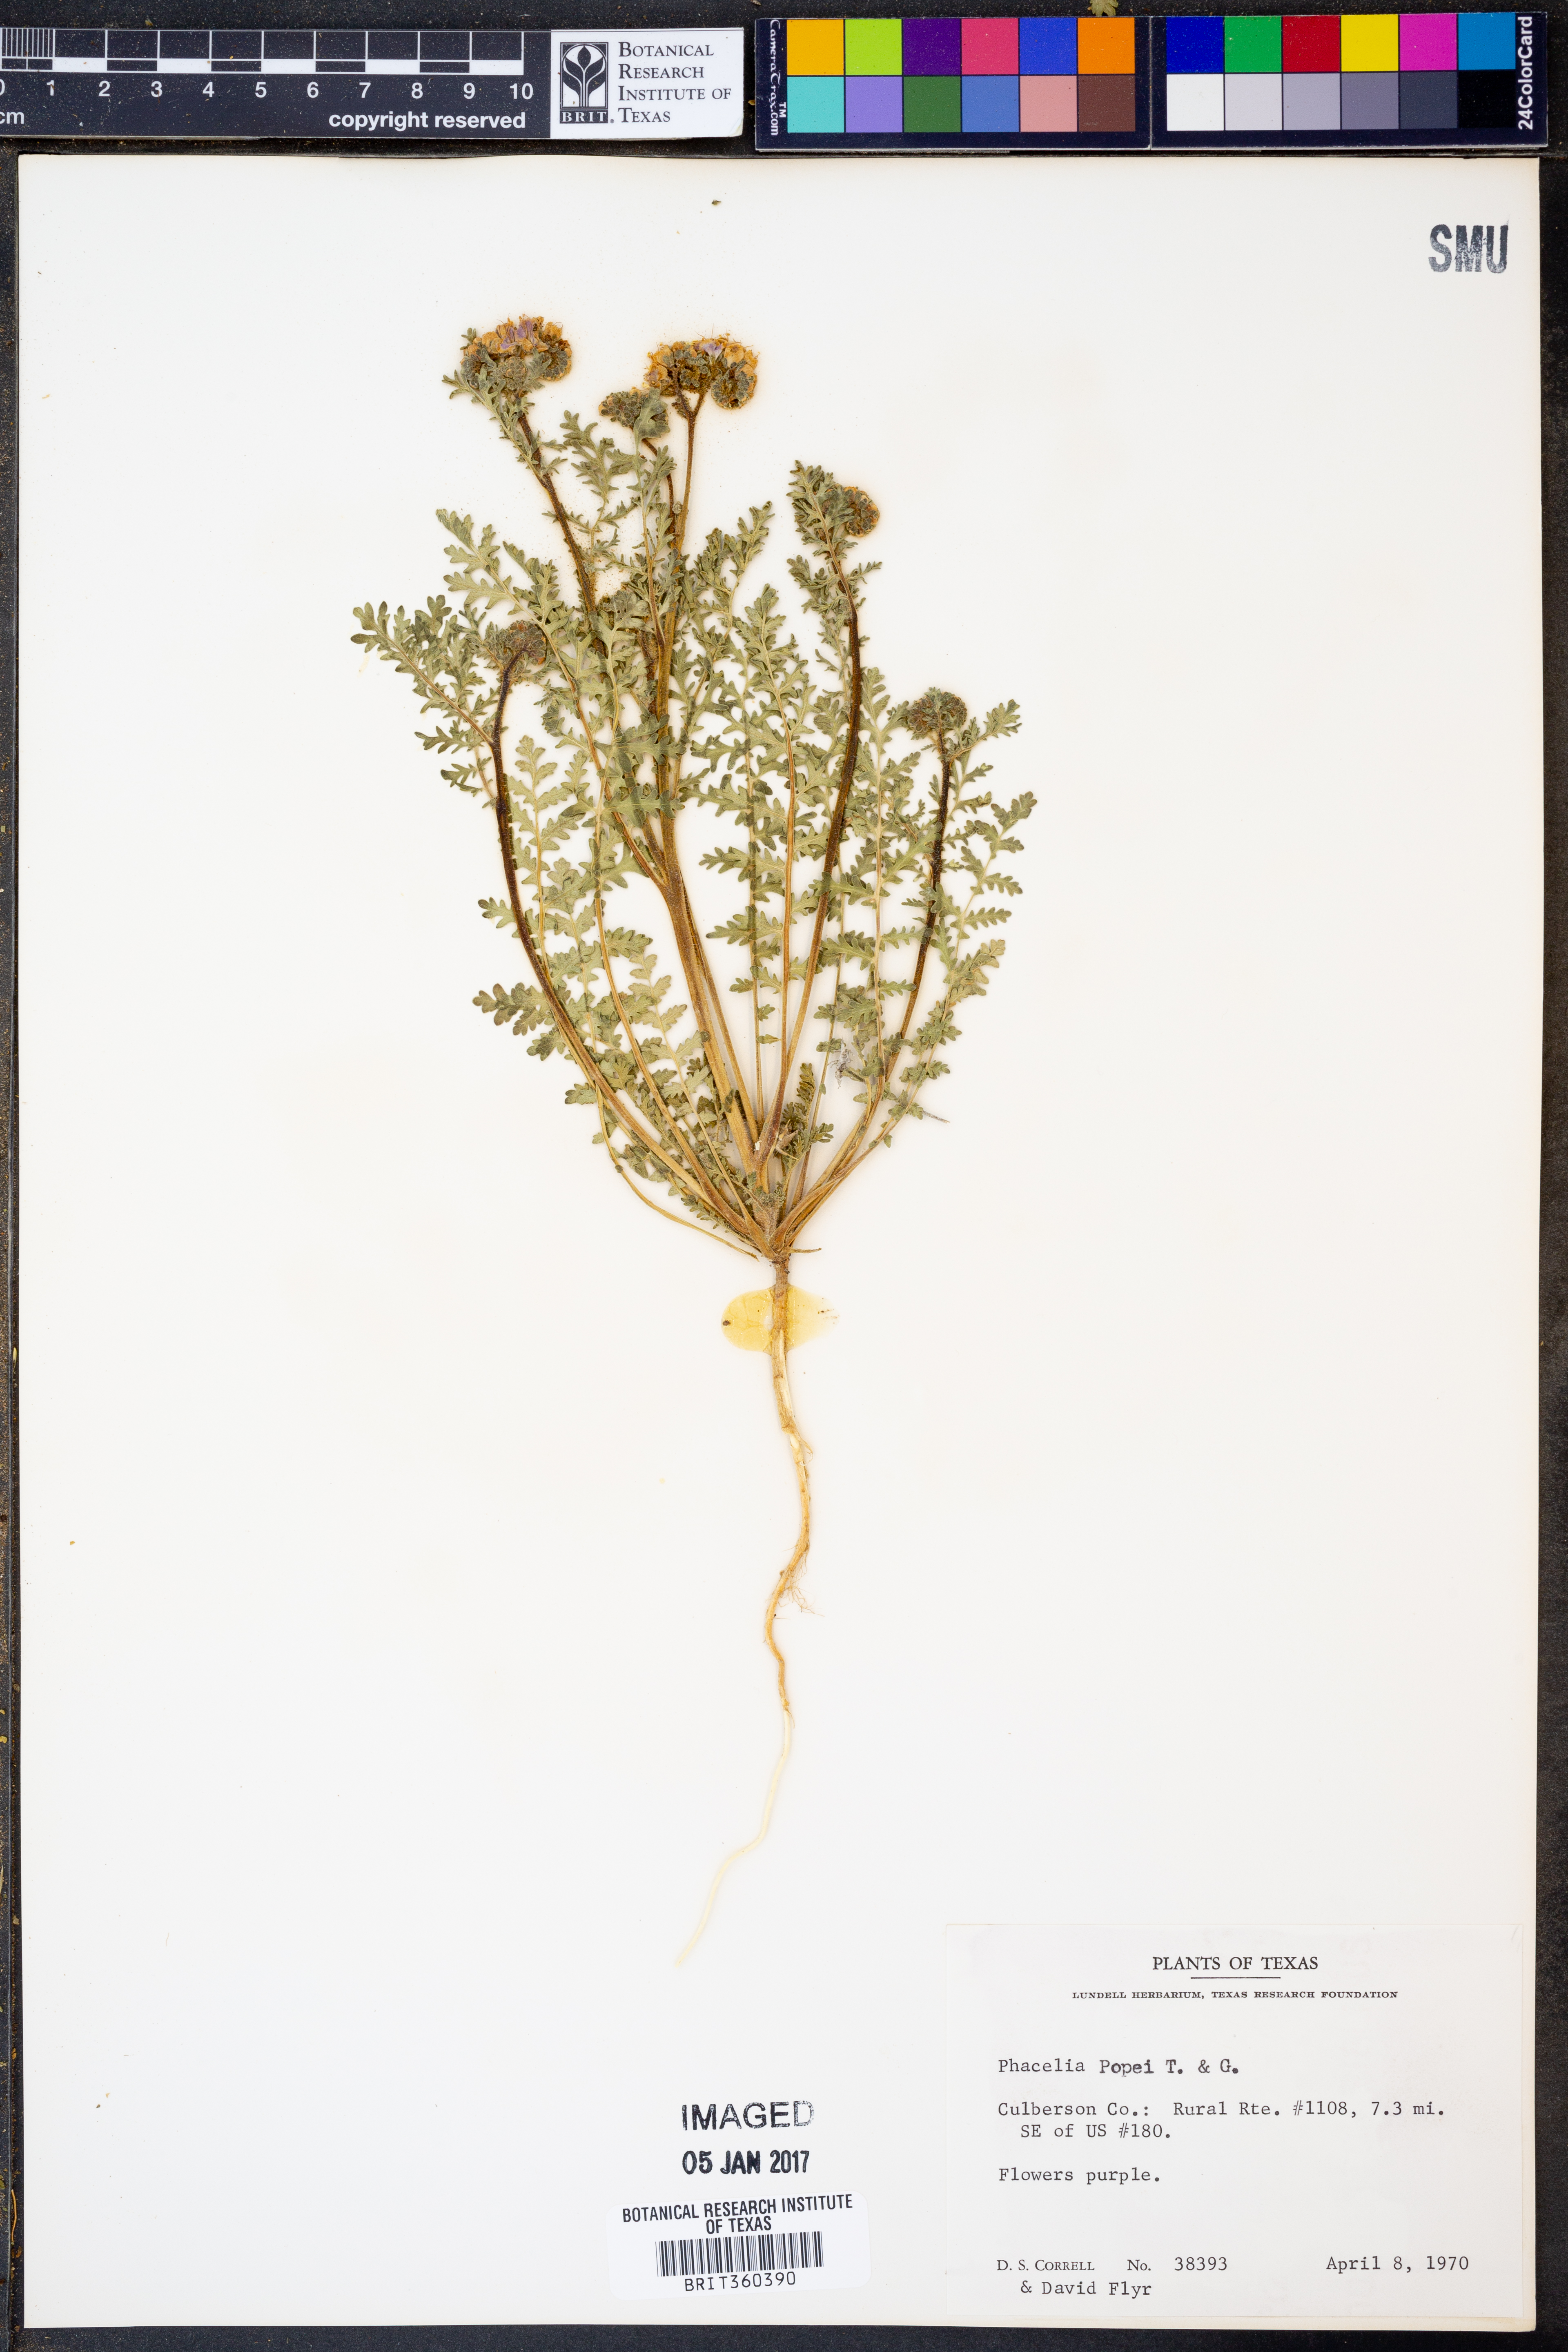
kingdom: Plantae
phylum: Tracheophyta
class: Magnoliopsida
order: Boraginales
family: Hydrophyllaceae
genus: Phacelia
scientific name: Phacelia popei
